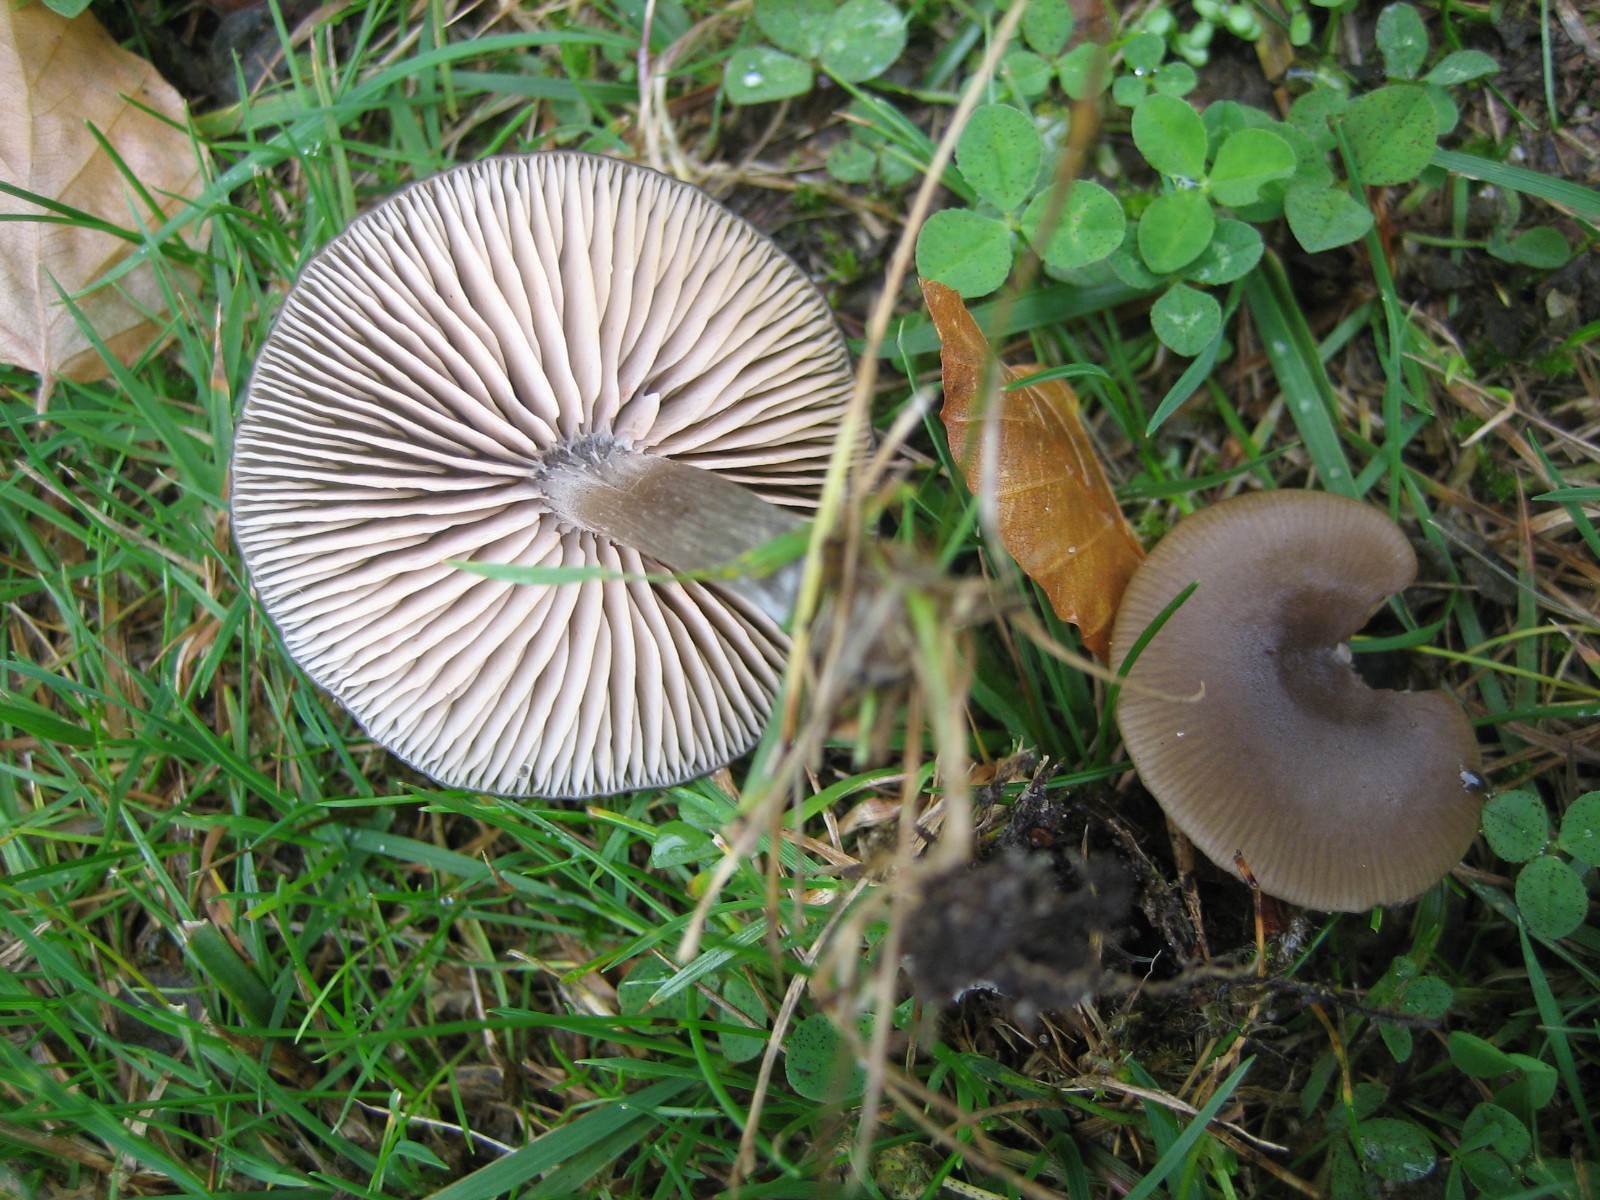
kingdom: Fungi
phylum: Basidiomycota
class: Agaricomycetes
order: Agaricales
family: Entolomataceae
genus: Entoloma
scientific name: Entoloma sericeum
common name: silkeglinsende rødblad
